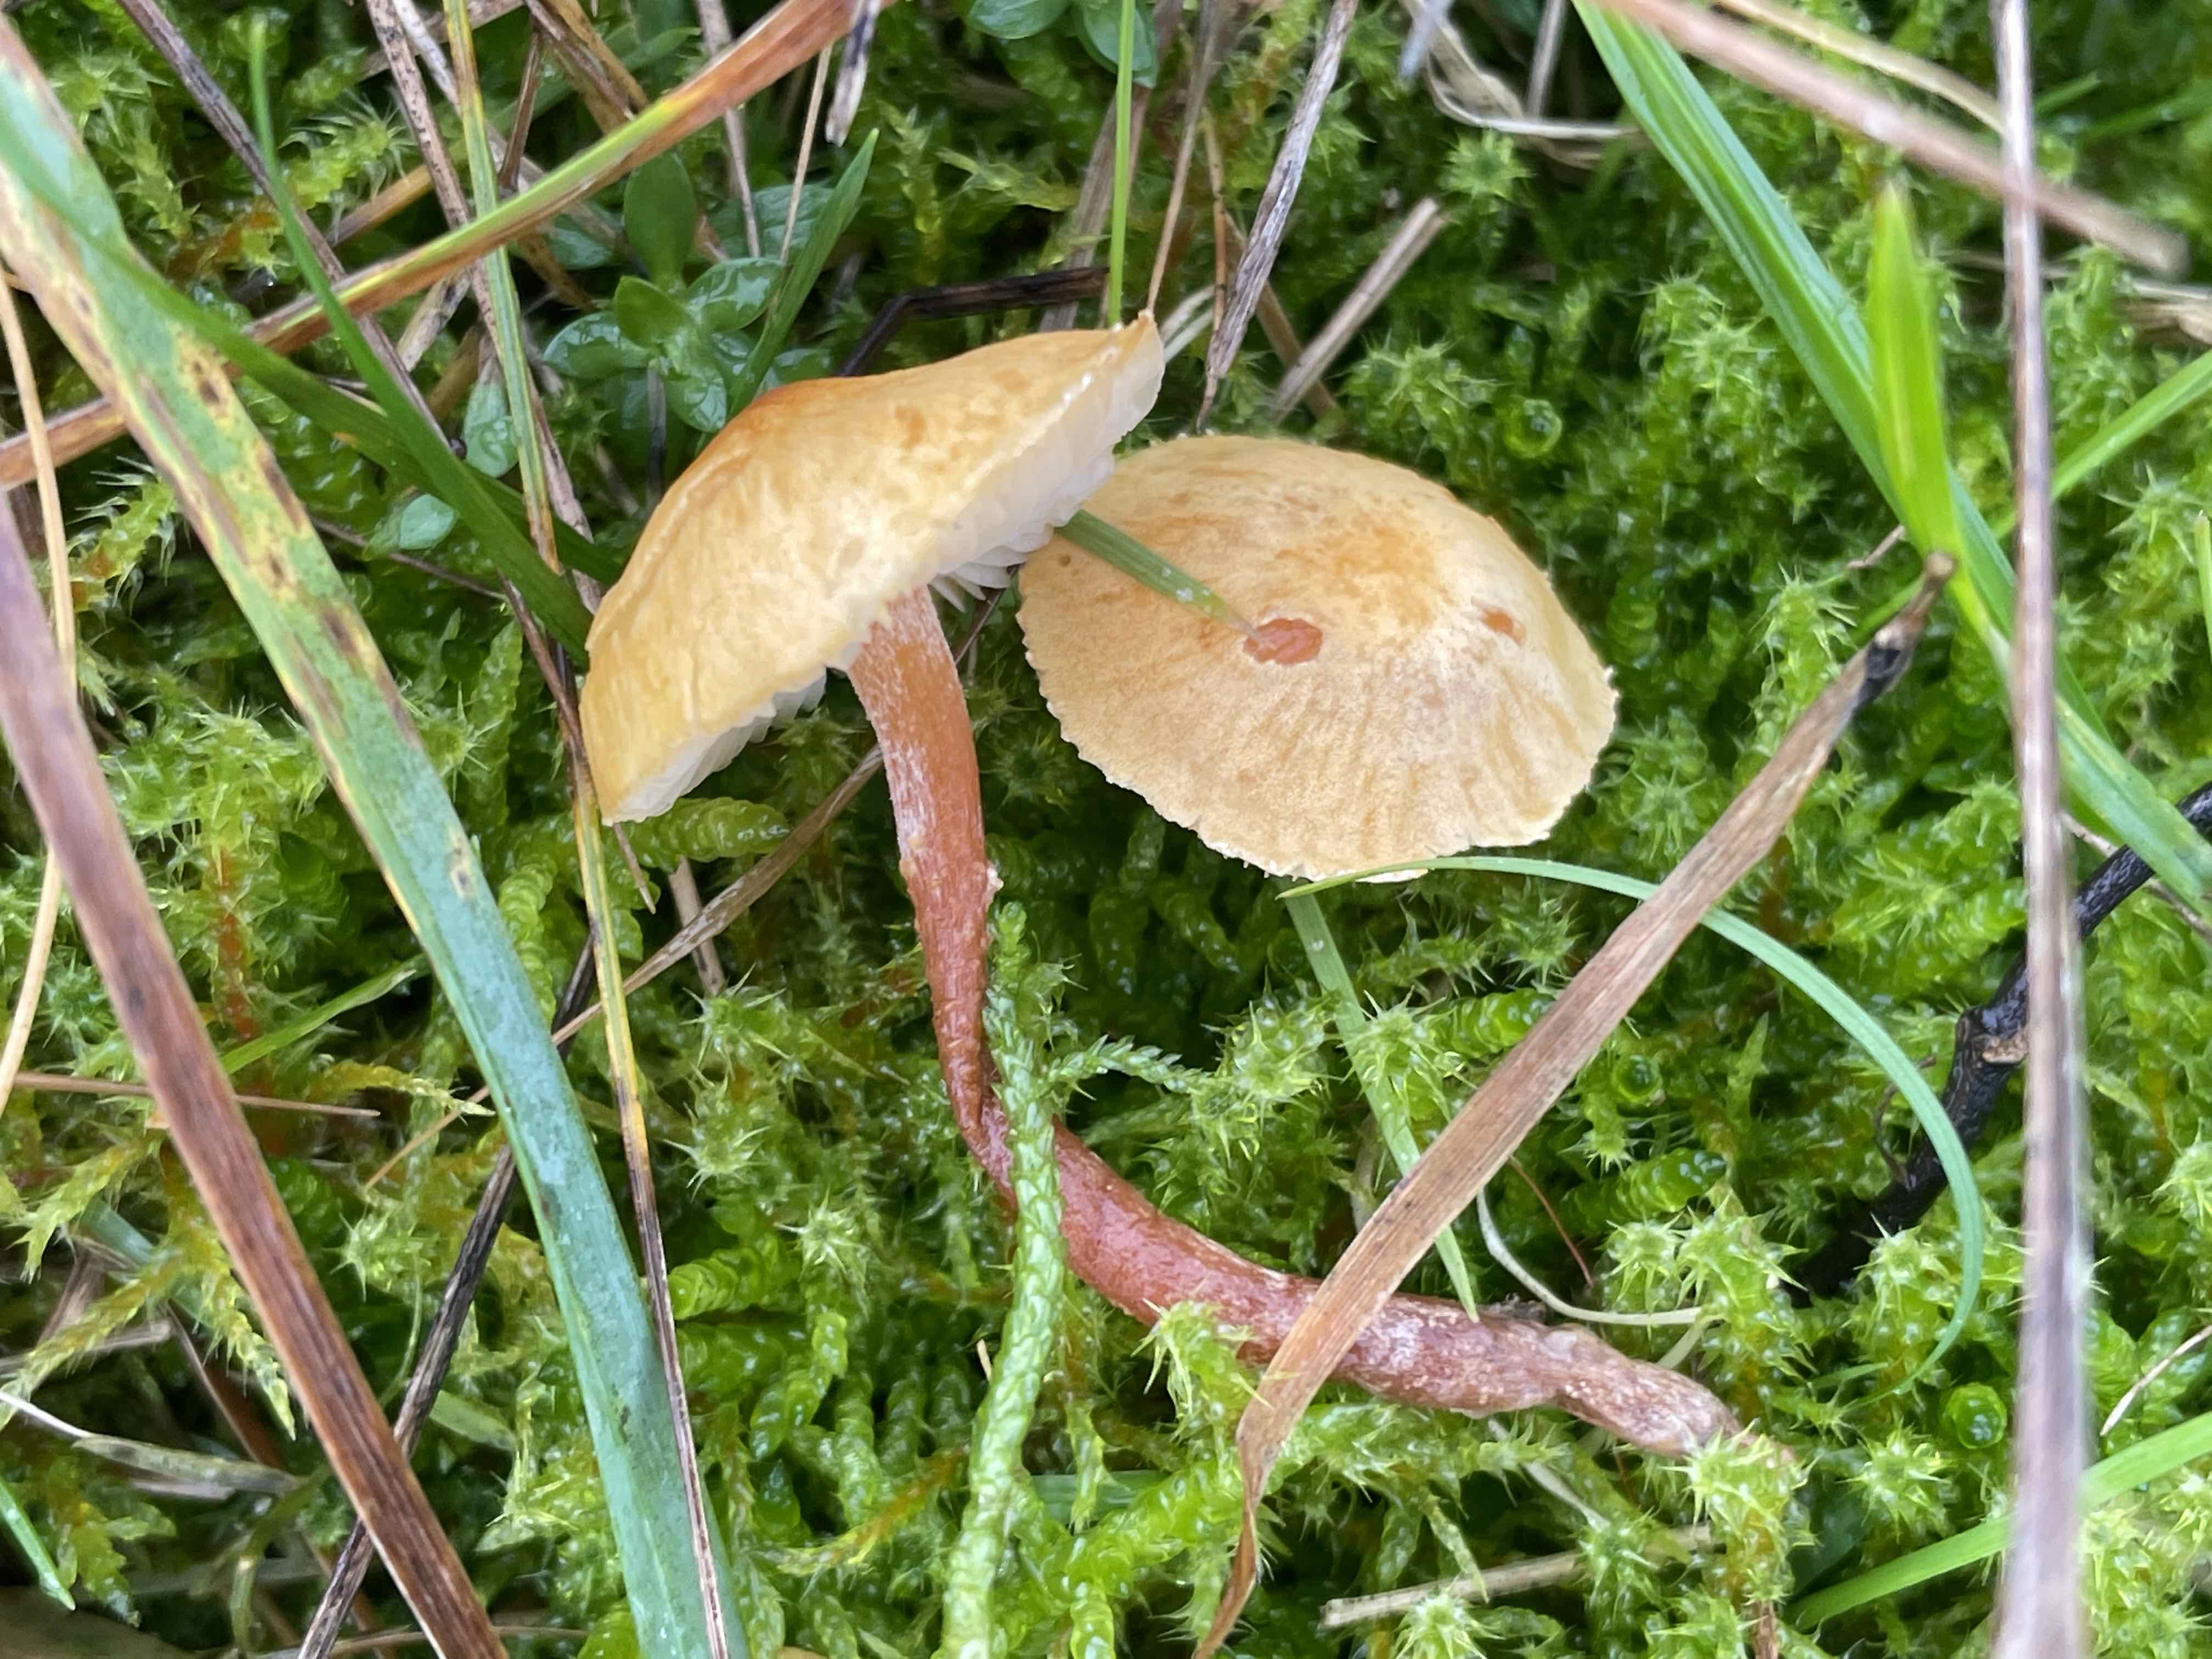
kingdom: Fungi
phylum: Basidiomycota
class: Agaricomycetes
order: Agaricales
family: Tricholomataceae
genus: Cystoderma
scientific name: Cystoderma amianthinum
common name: okkergul grynhat
